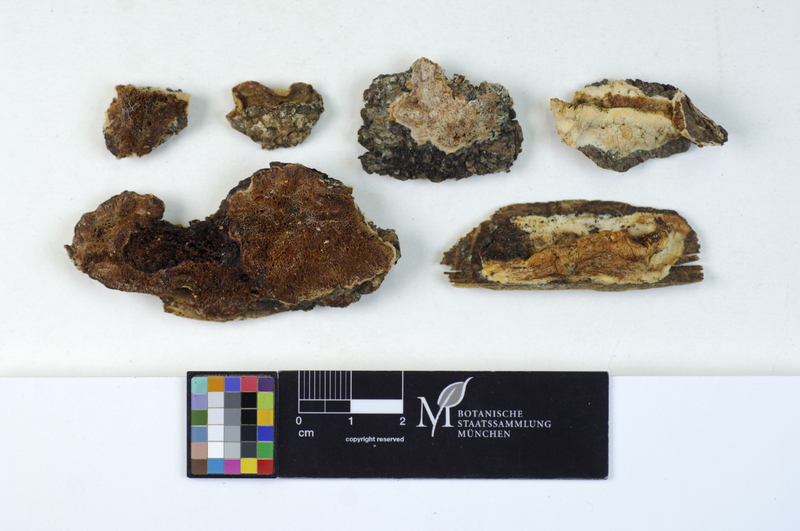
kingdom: Fungi
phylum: Basidiomycota
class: Agaricomycetes
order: Polyporales
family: Irpicaceae
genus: Leptoporus
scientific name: Leptoporus mollis
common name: Soft bracket
